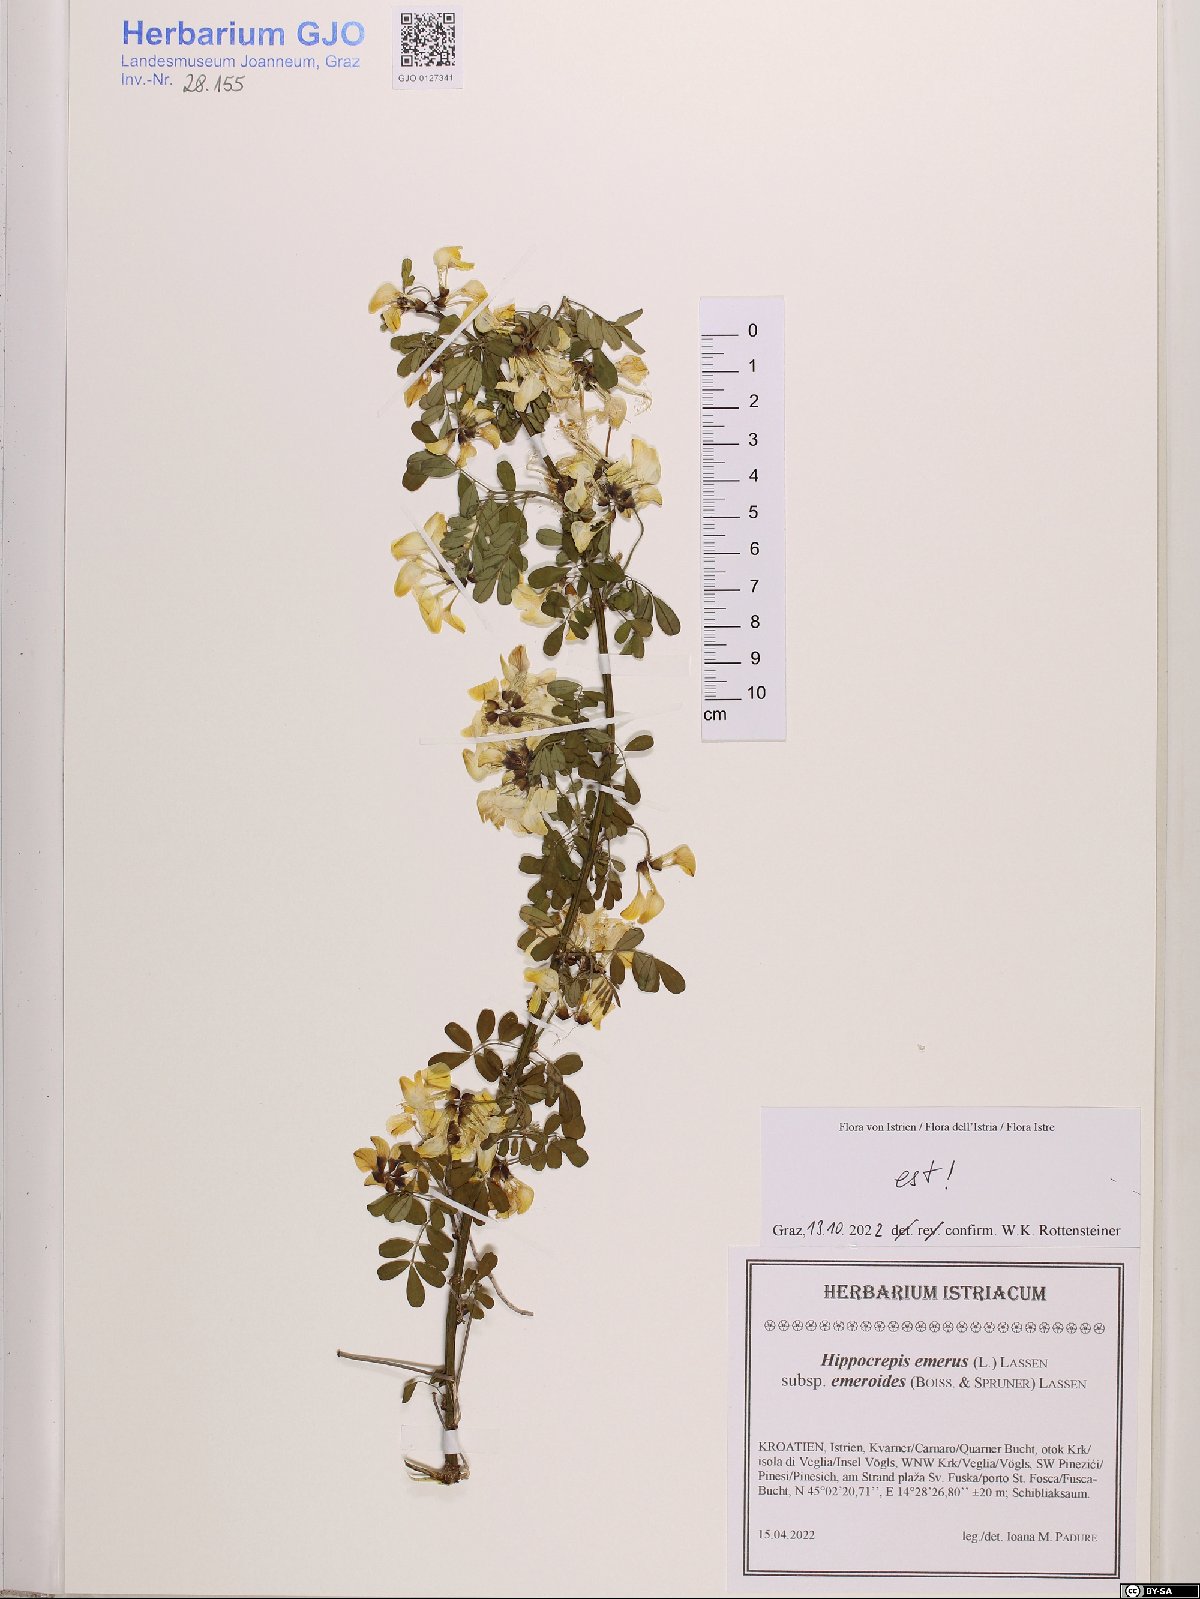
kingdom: Plantae
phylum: Tracheophyta
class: Magnoliopsida
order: Fabales
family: Fabaceae
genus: Hippocrepis
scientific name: Hippocrepis emerus
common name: Scorpion senna
